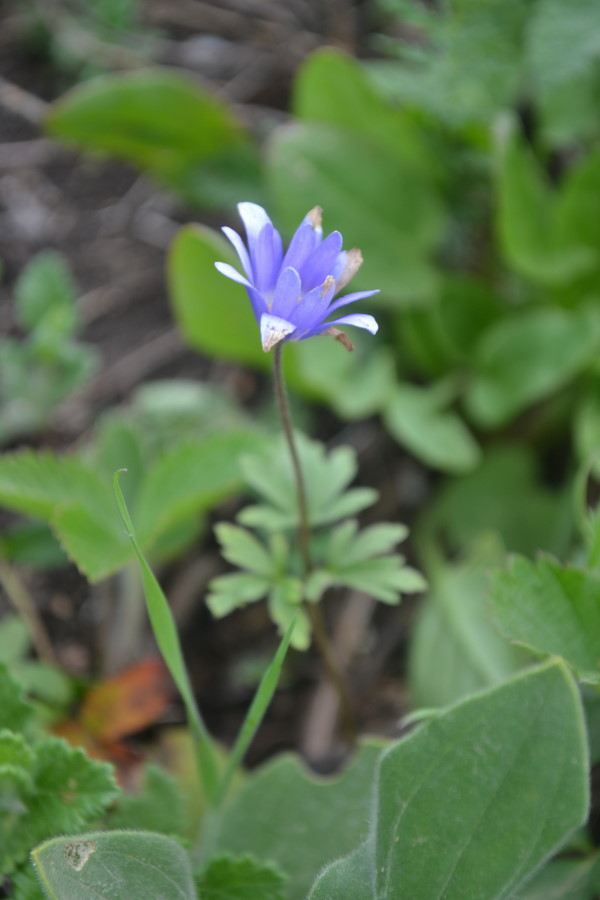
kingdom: Plantae
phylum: Tracheophyta
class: Magnoliopsida
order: Ranunculales
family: Ranunculaceae
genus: Anemone
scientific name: Anemone blanda
